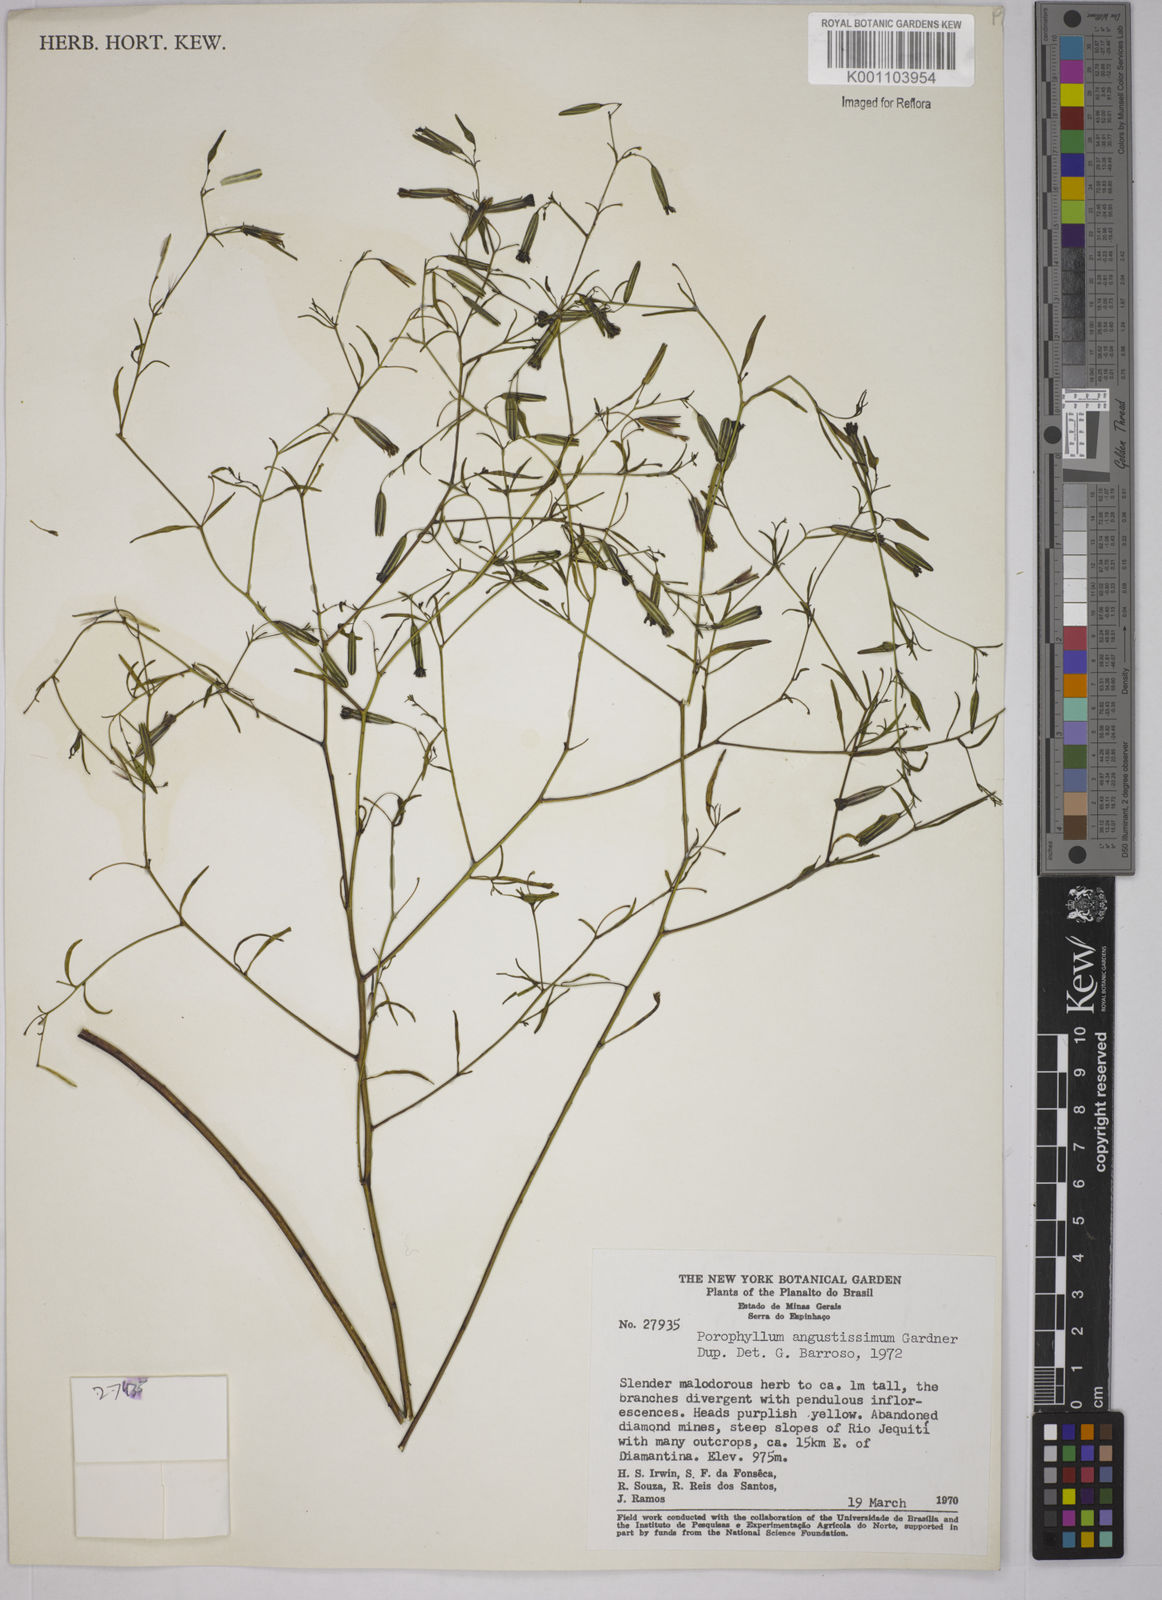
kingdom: Plantae
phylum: Tracheophyta
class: Magnoliopsida
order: Asterales
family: Asteraceae
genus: Porophyllum
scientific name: Porophyllum angustissimum
